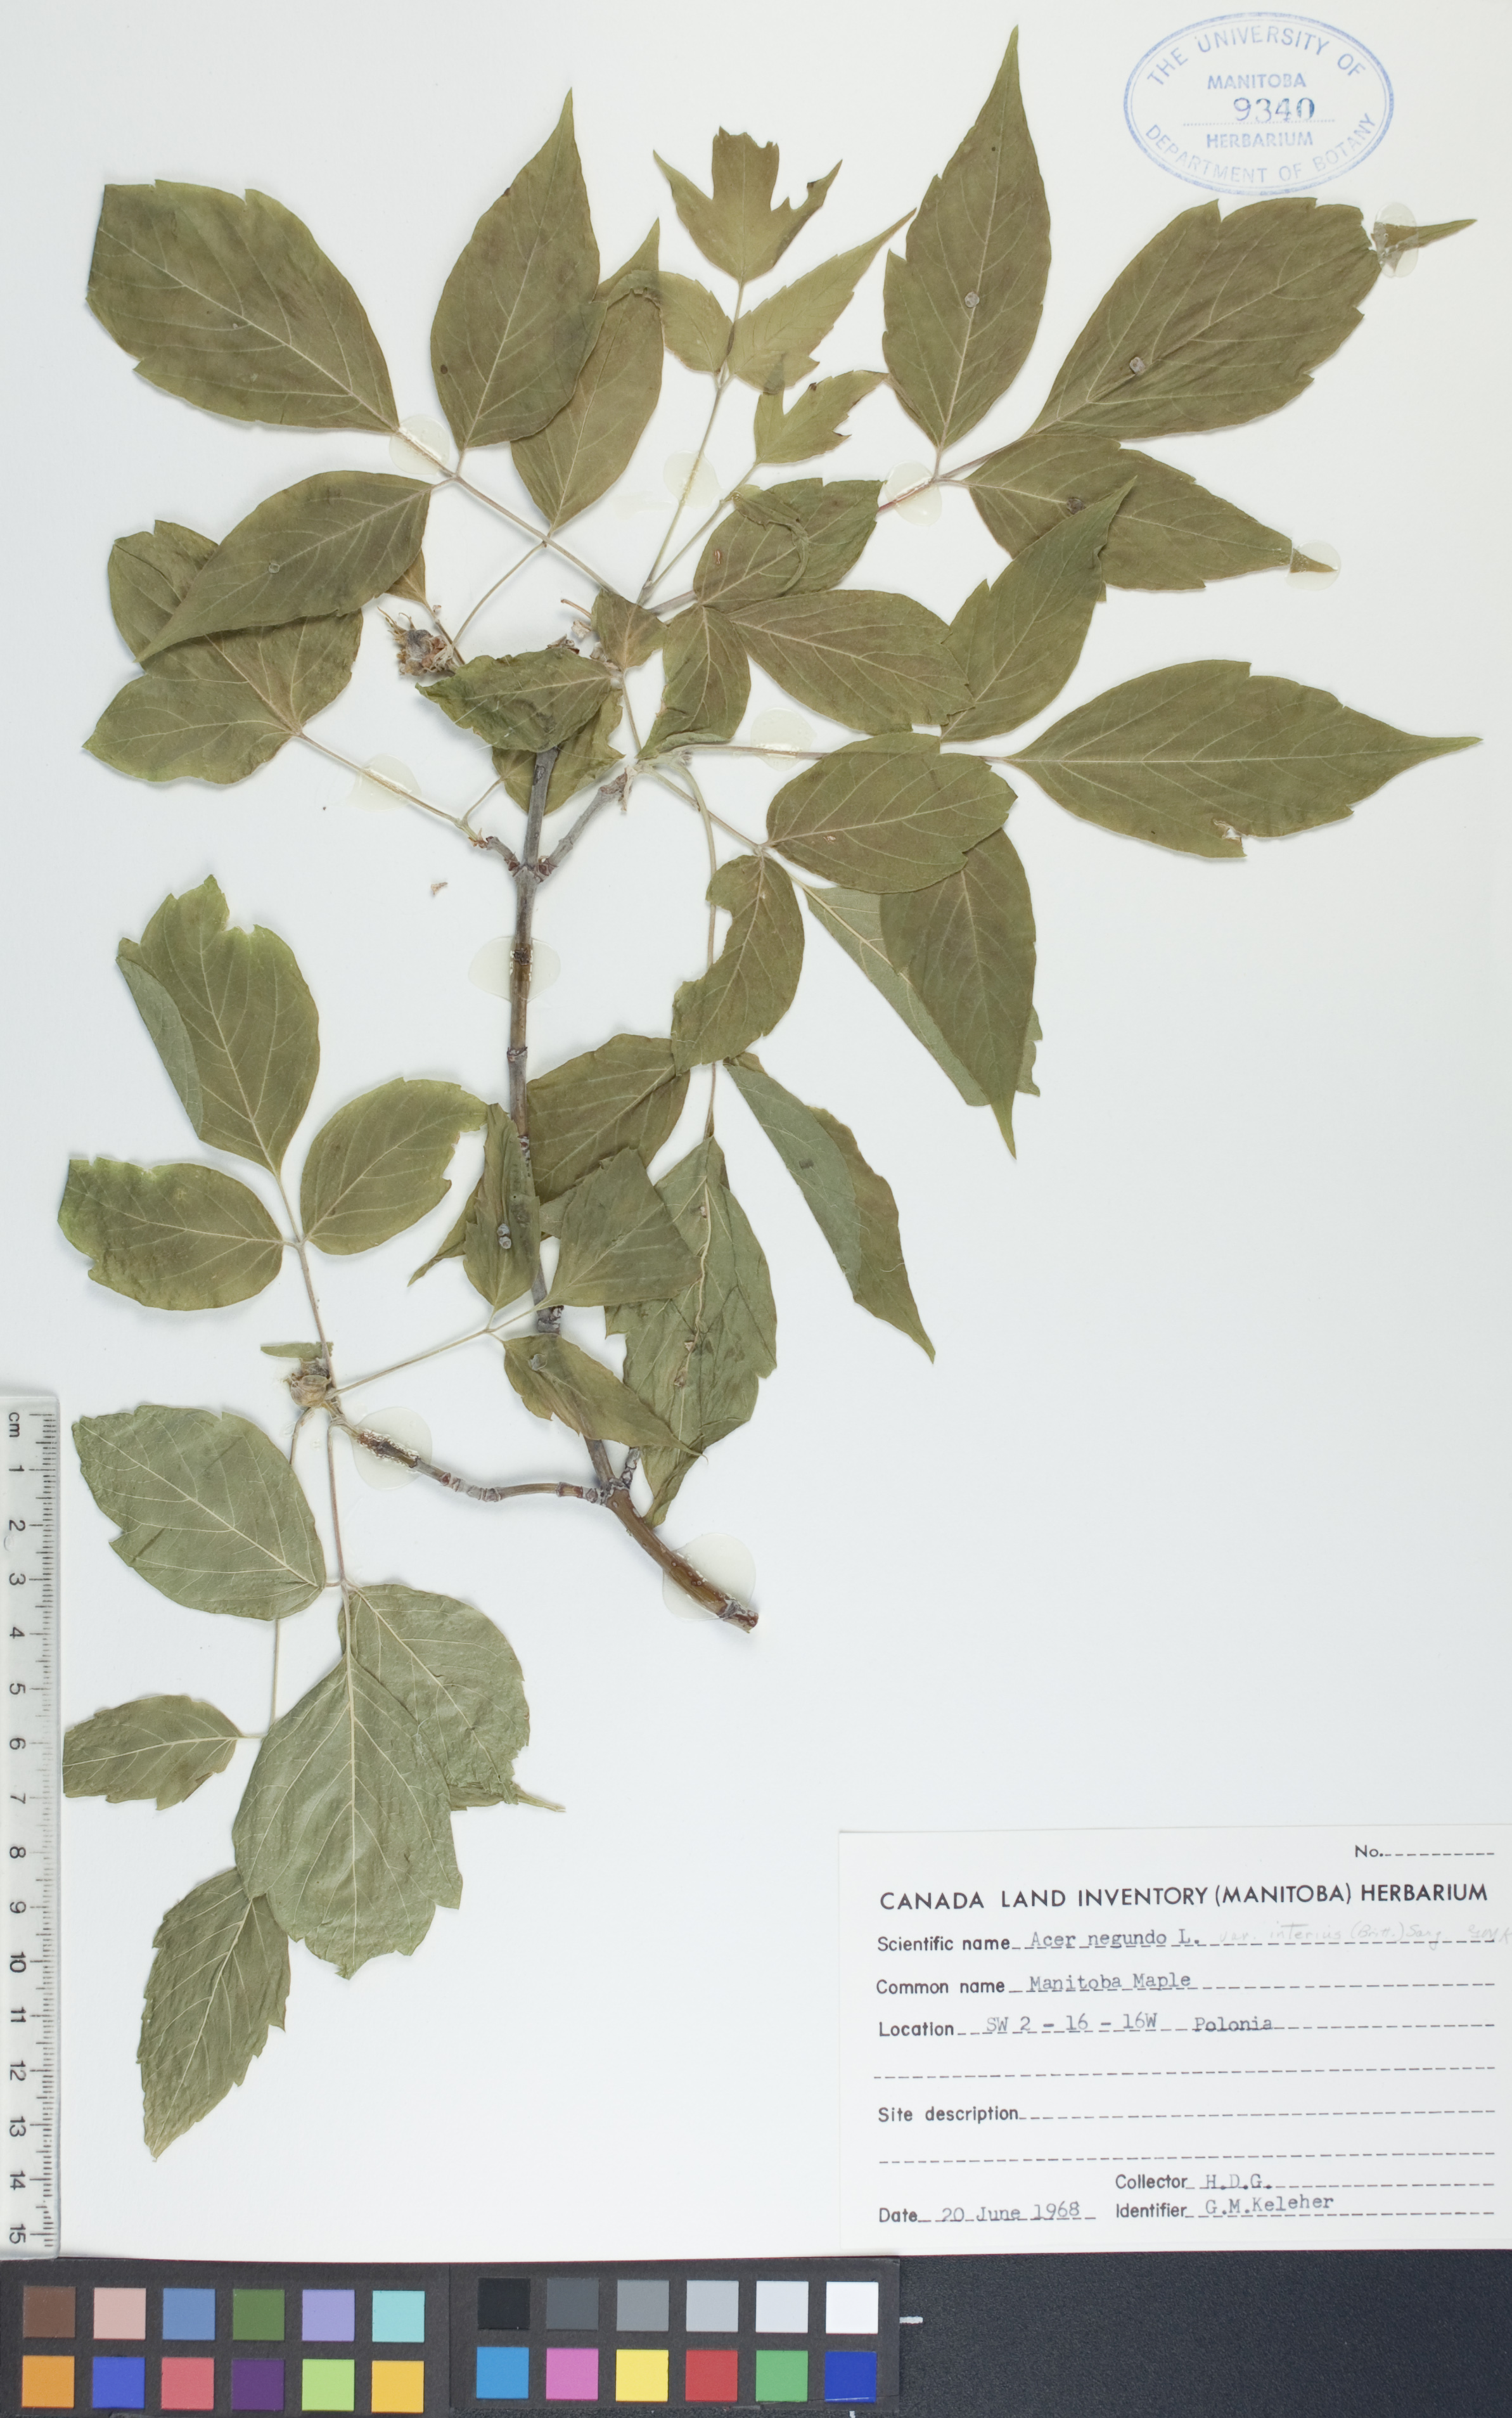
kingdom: Plantae
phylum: Tracheophyta
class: Magnoliopsida
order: Sapindales
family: Sapindaceae
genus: Acer
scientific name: Acer negundo
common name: Ashleaf maple
